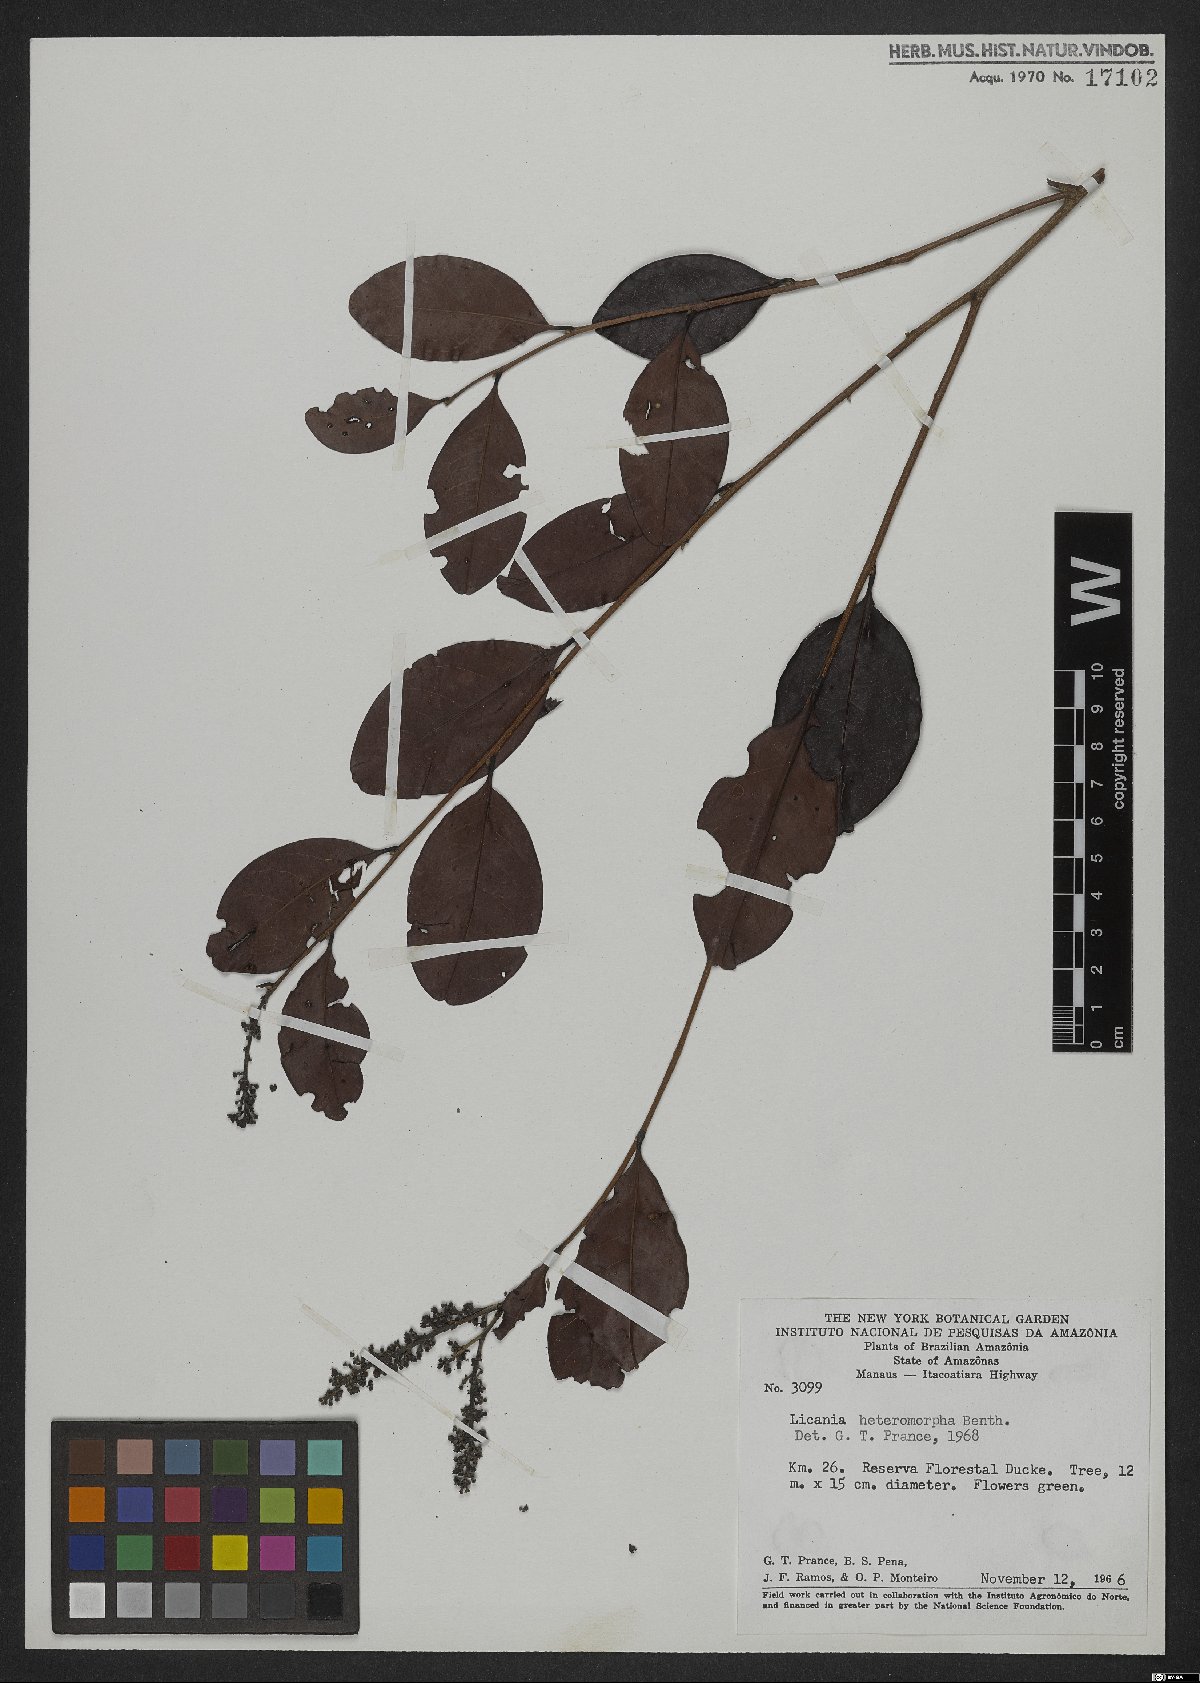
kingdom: Plantae
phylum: Tracheophyta
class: Magnoliopsida
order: Malpighiales
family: Chrysobalanaceae
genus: Hymenopus
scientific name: Hymenopus heteromorphus
